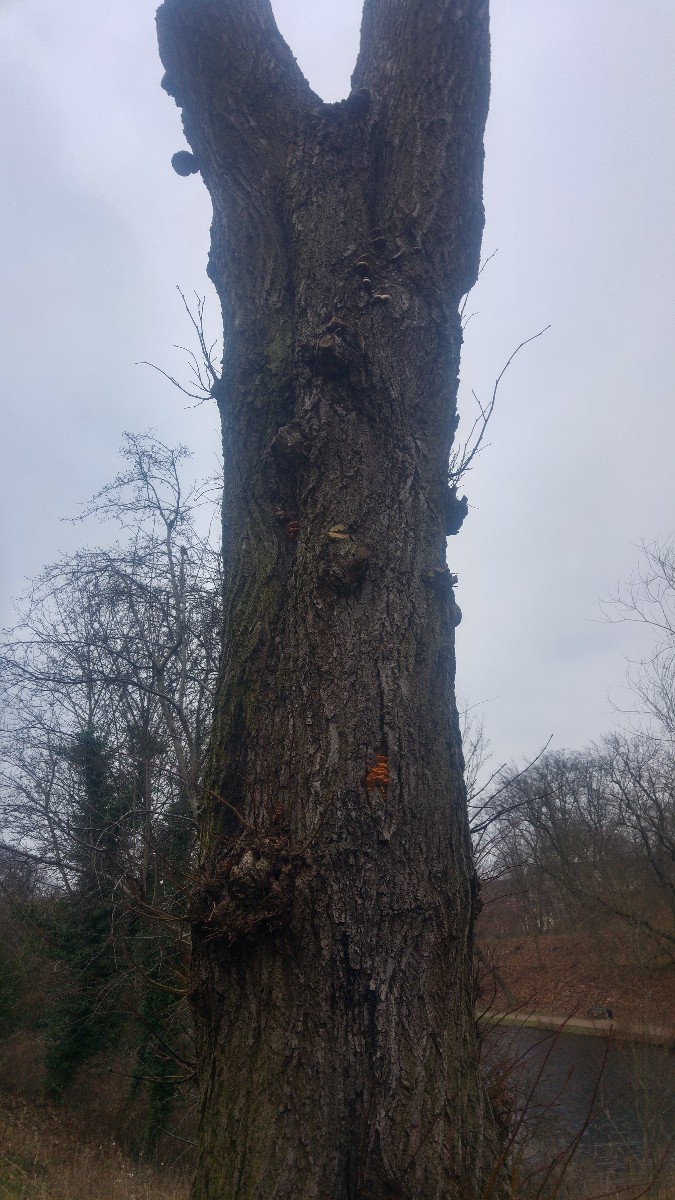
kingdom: Fungi
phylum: Basidiomycota
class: Agaricomycetes
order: Agaricales
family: Physalacriaceae
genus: Flammulina
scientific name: Flammulina velutipes
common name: gul fløjlsfod
